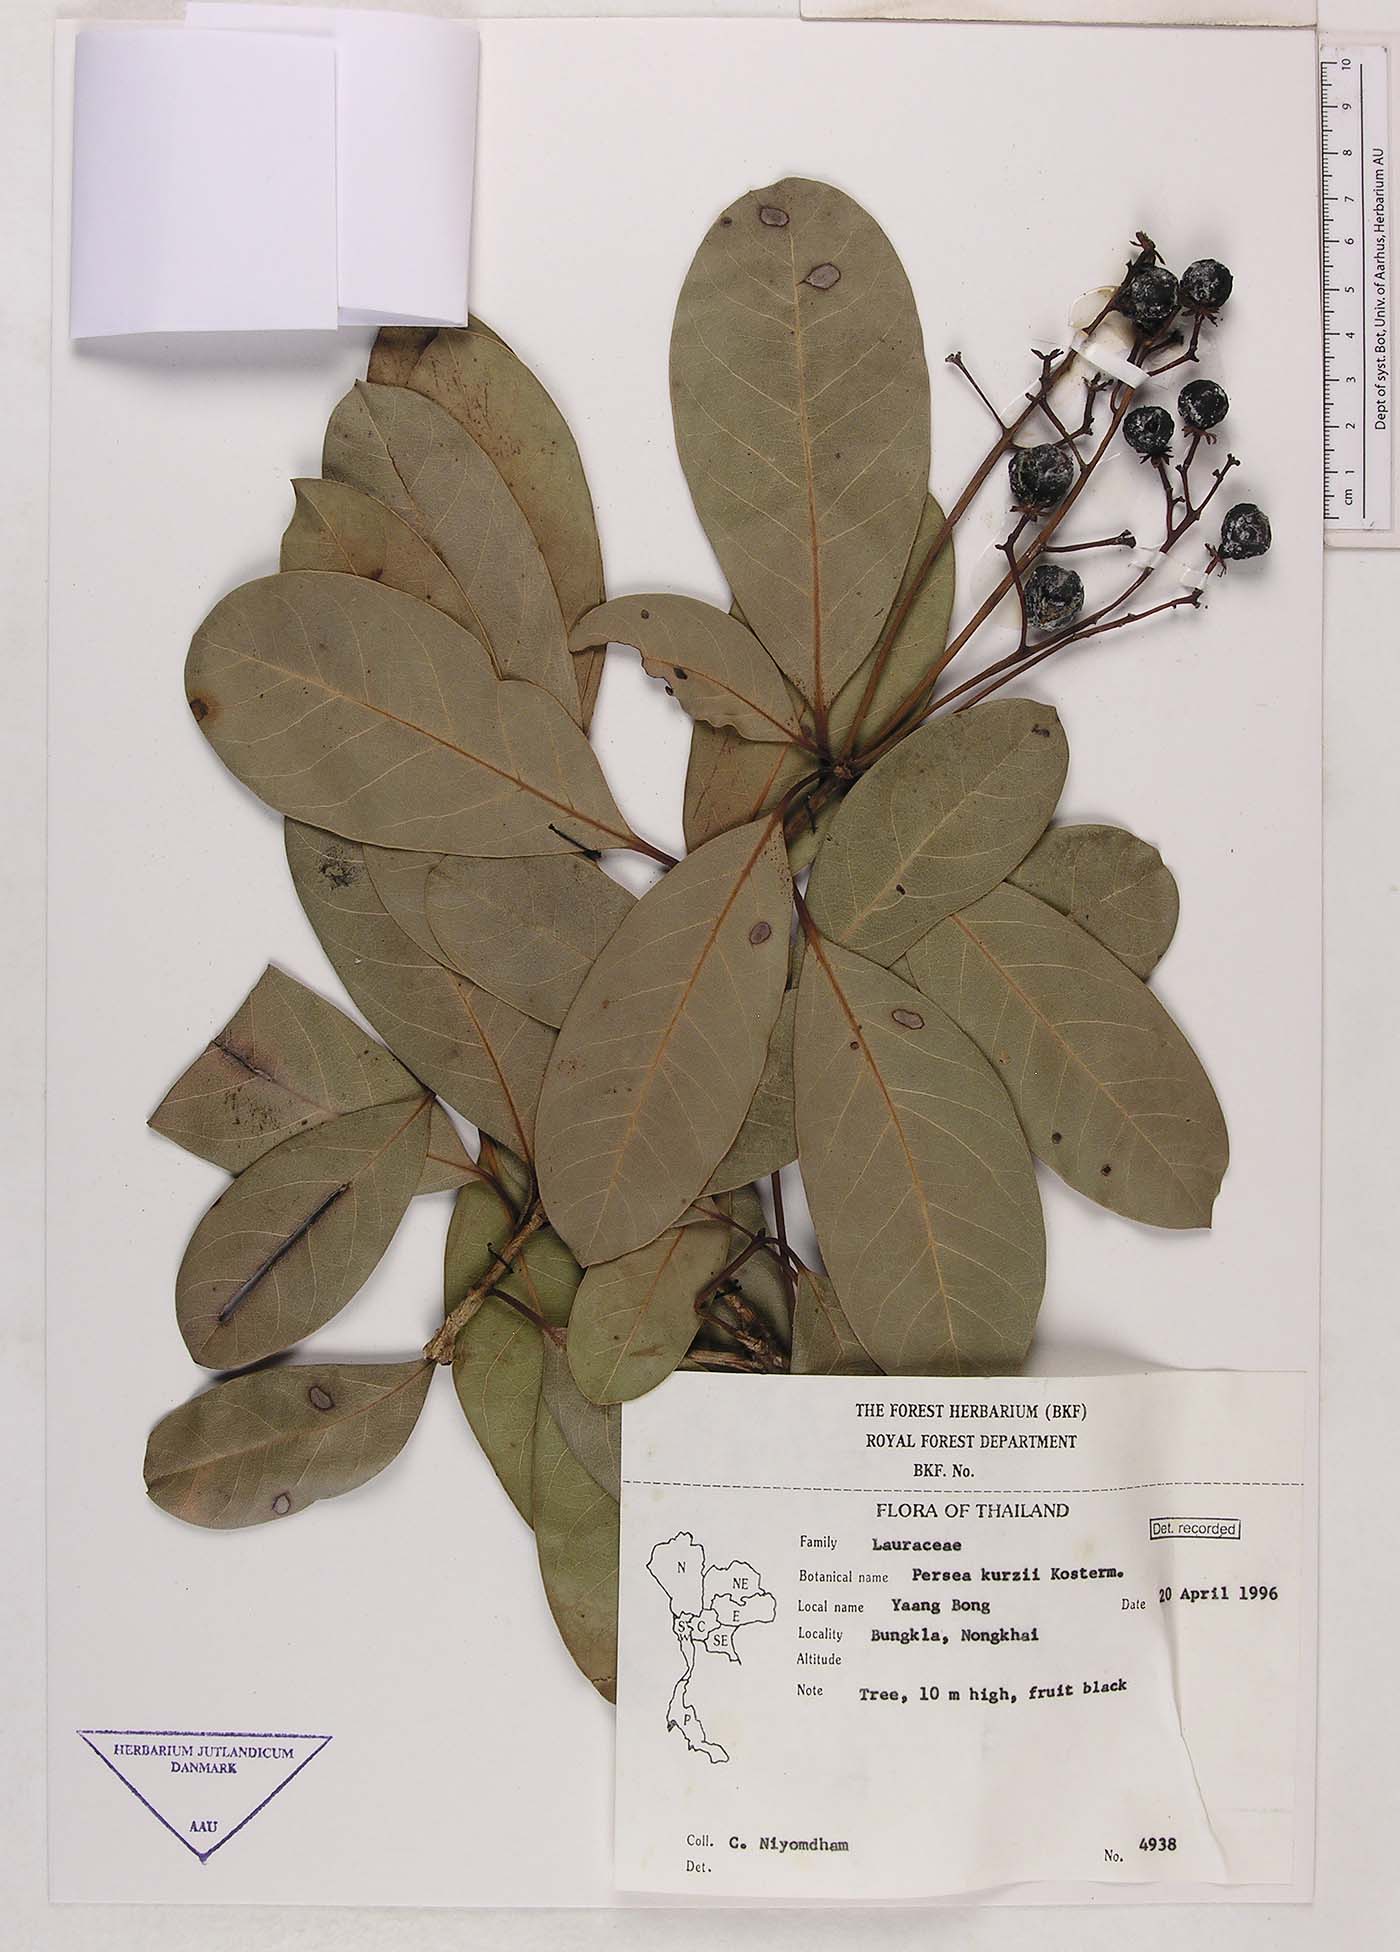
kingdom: Plantae
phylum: Tracheophyta
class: Magnoliopsida
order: Laurales
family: Lauraceae
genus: Machilus
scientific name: Machilus kurzii
